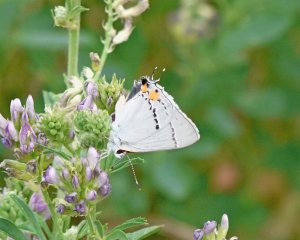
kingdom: Animalia
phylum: Arthropoda
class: Insecta
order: Lepidoptera
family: Lycaenidae
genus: Strymon
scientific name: Strymon melinus
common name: Gray Hairstreak
